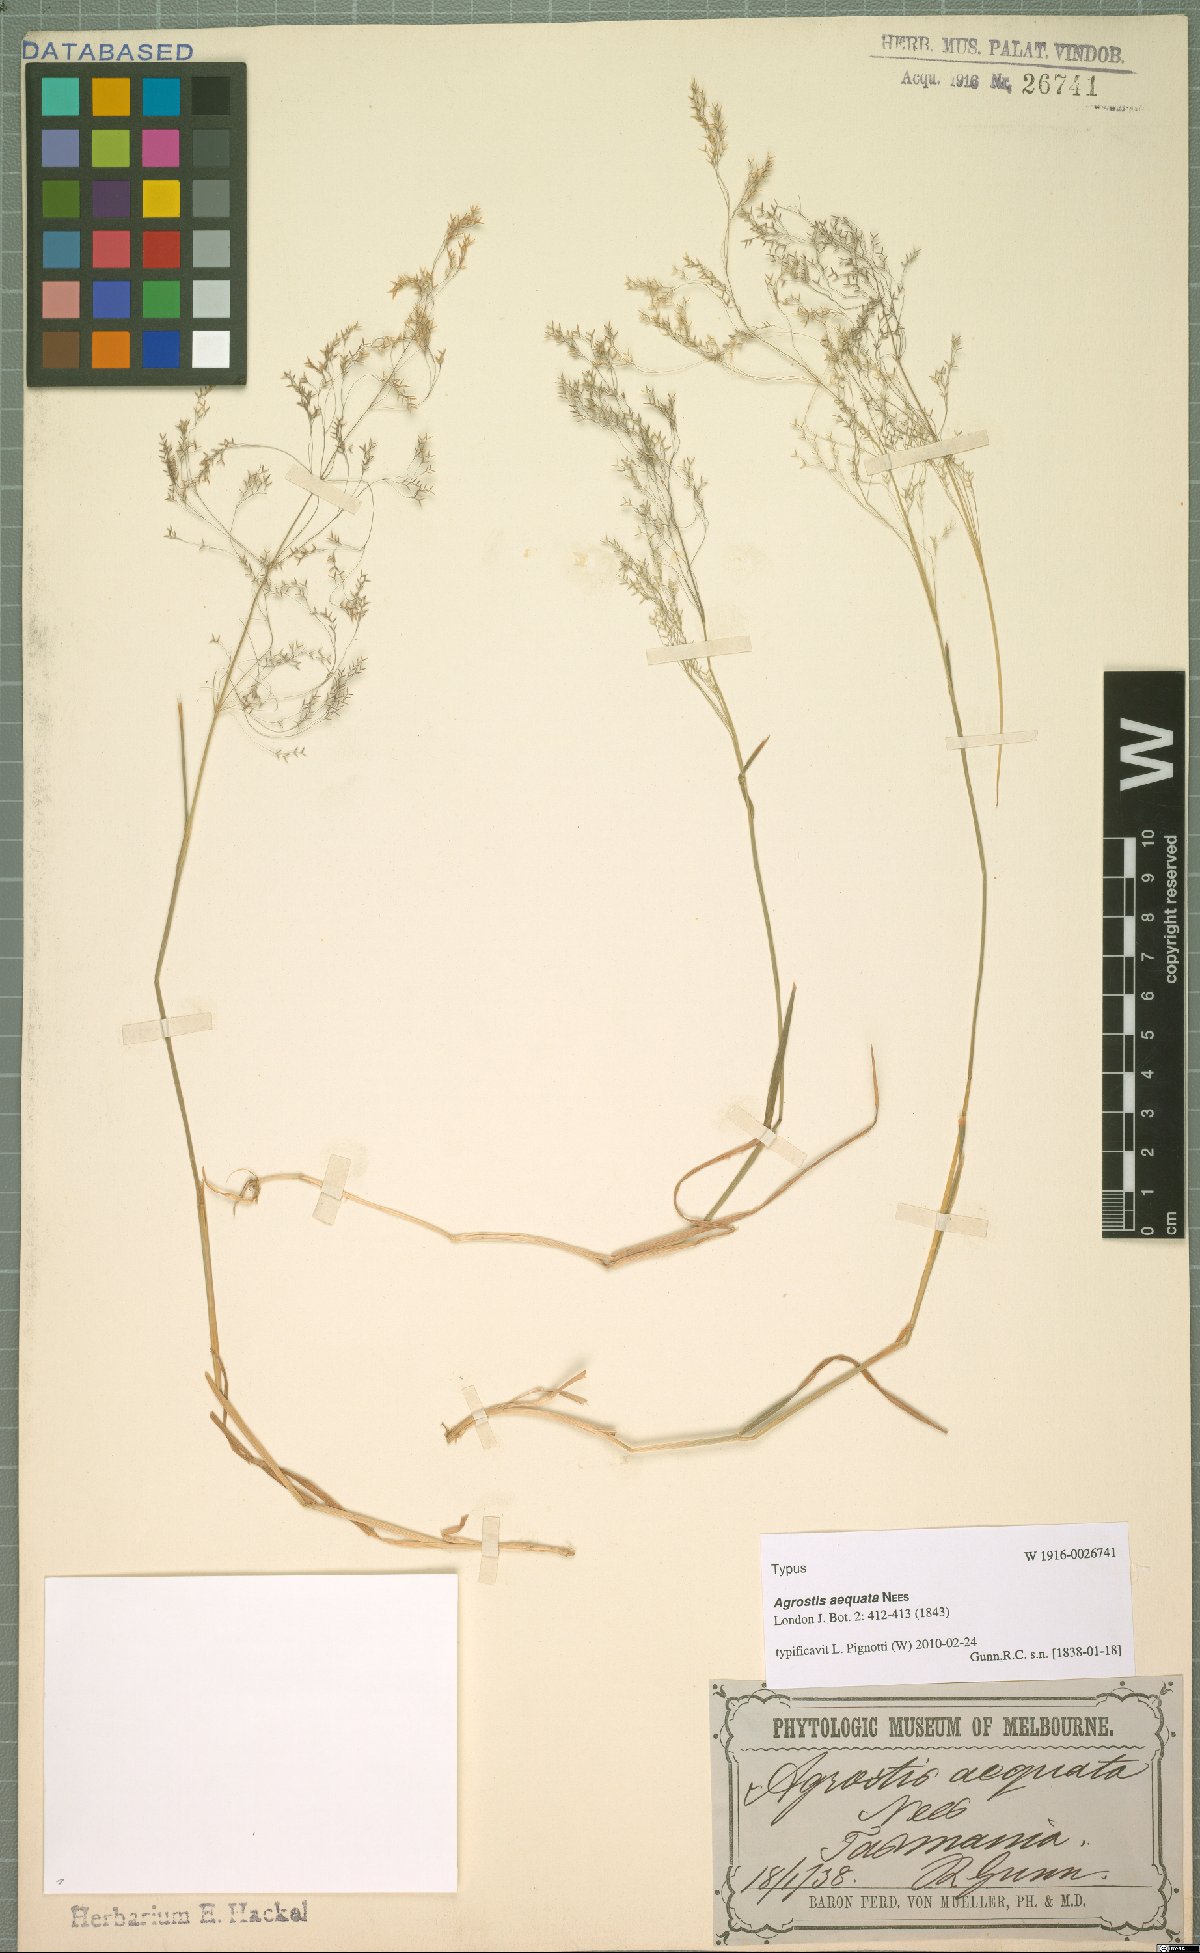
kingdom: Plantae
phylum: Tracheophyta
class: Liliopsida
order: Poales
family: Poaceae
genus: Lachnagrostis
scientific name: Lachnagrostis rudis
